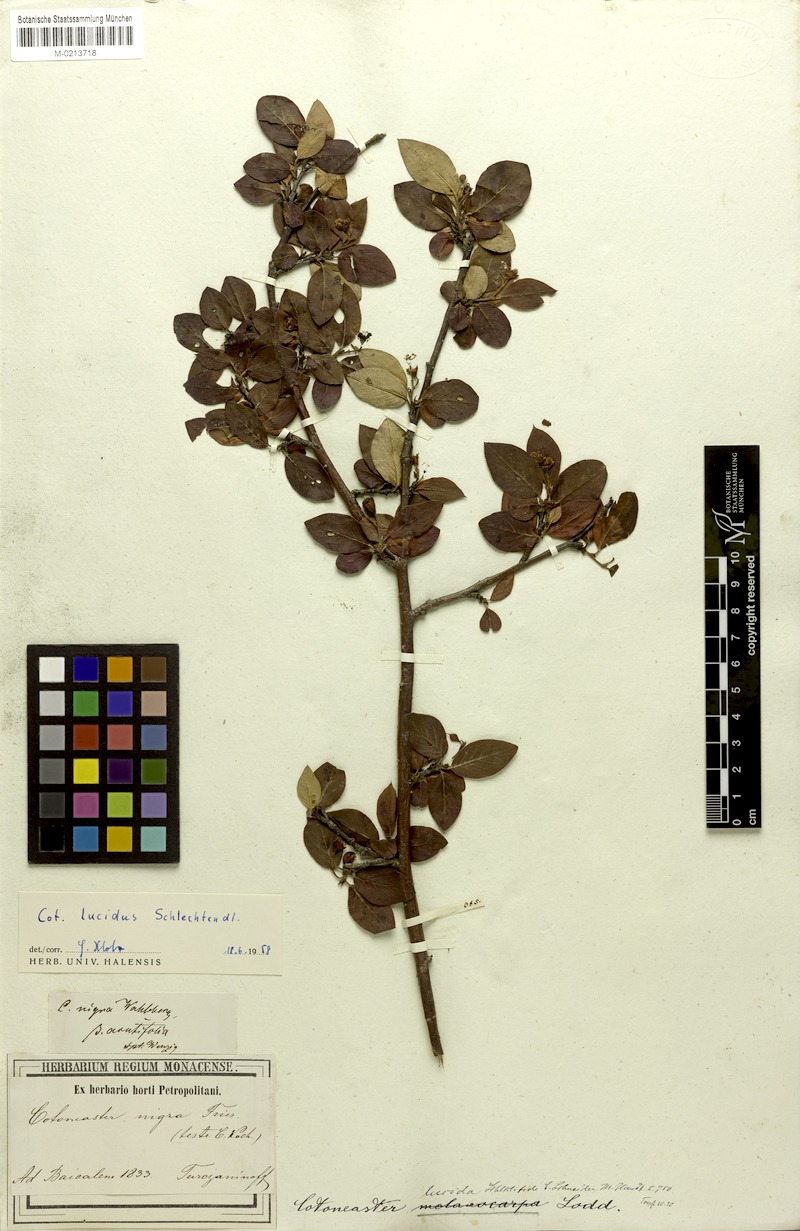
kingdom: Plantae
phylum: Tracheophyta
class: Magnoliopsida
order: Rosales
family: Rosaceae
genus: Cotoneaster
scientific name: Cotoneaster acutifolius
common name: Peking cotoneaster
